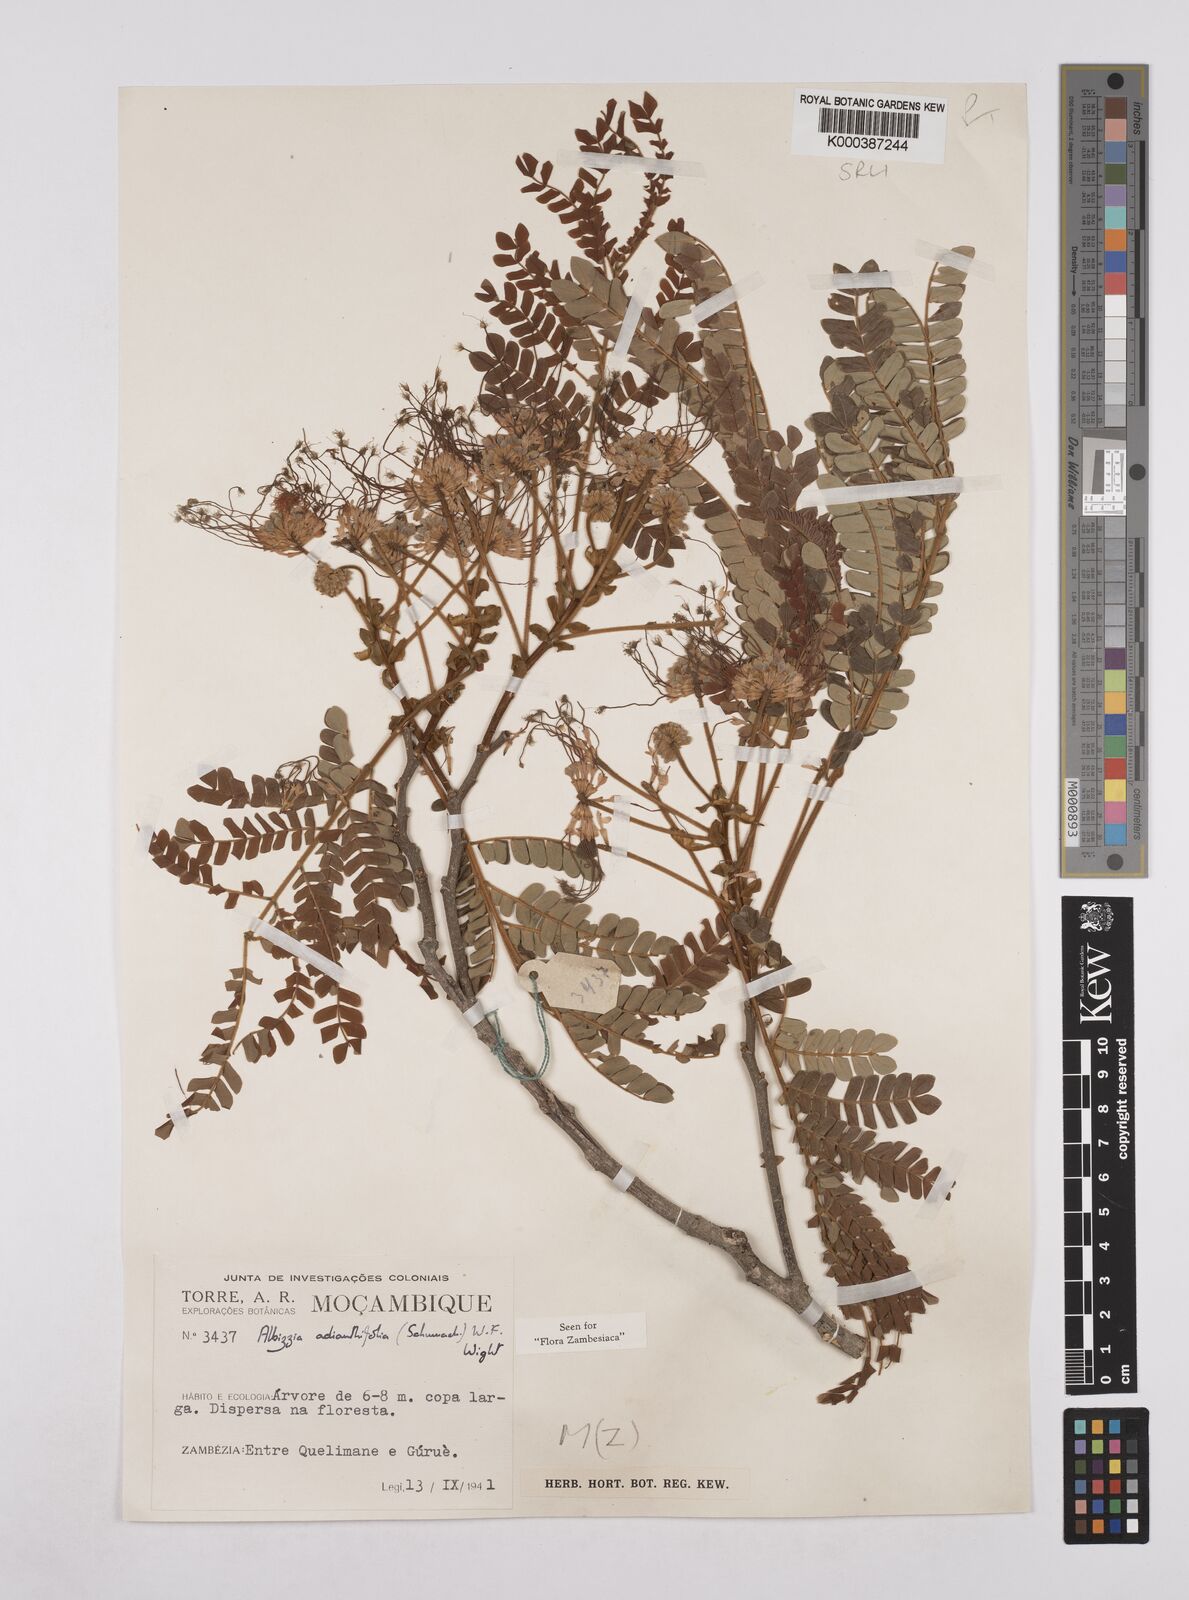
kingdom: Plantae
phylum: Tracheophyta
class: Magnoliopsida
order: Fabales
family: Fabaceae
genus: Albizia
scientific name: Albizia adianthifolia
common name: West african albizia
